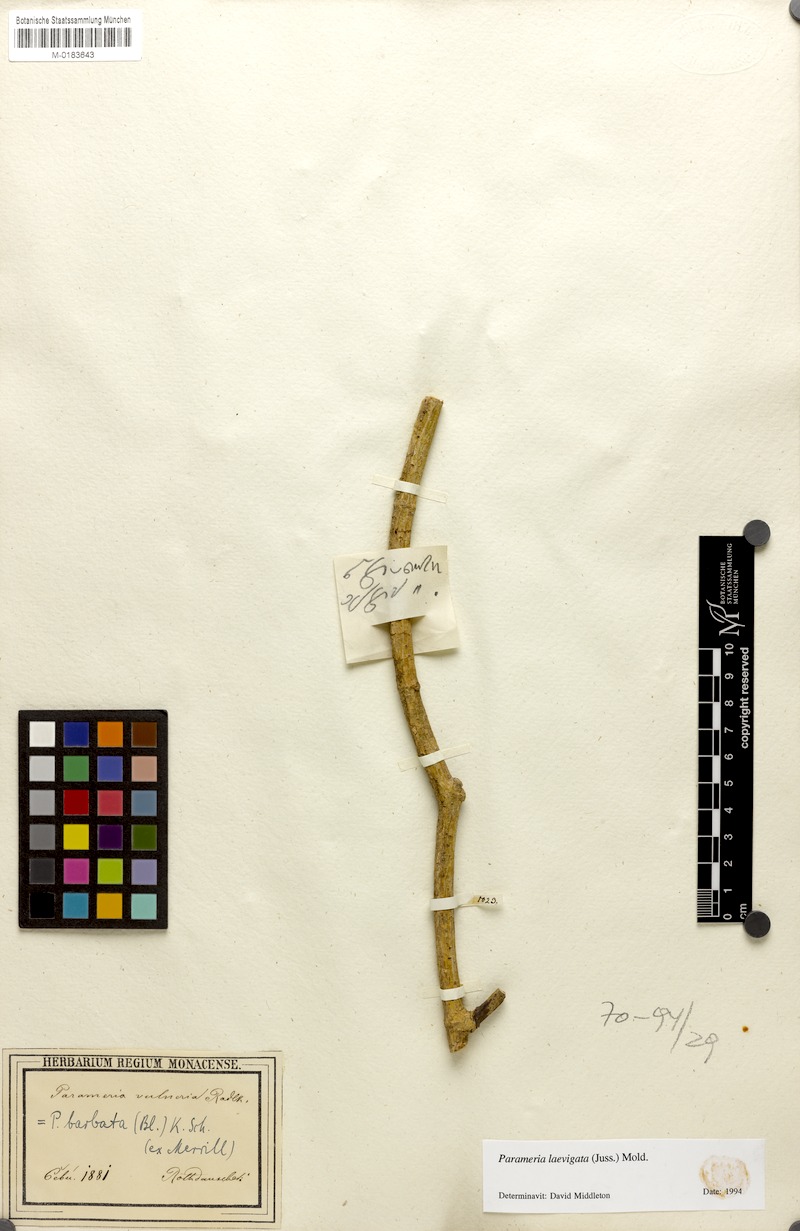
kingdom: Plantae
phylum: Tracheophyta
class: Magnoliopsida
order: Gentianales
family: Apocynaceae
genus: Urceola
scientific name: Urceola laevigata
